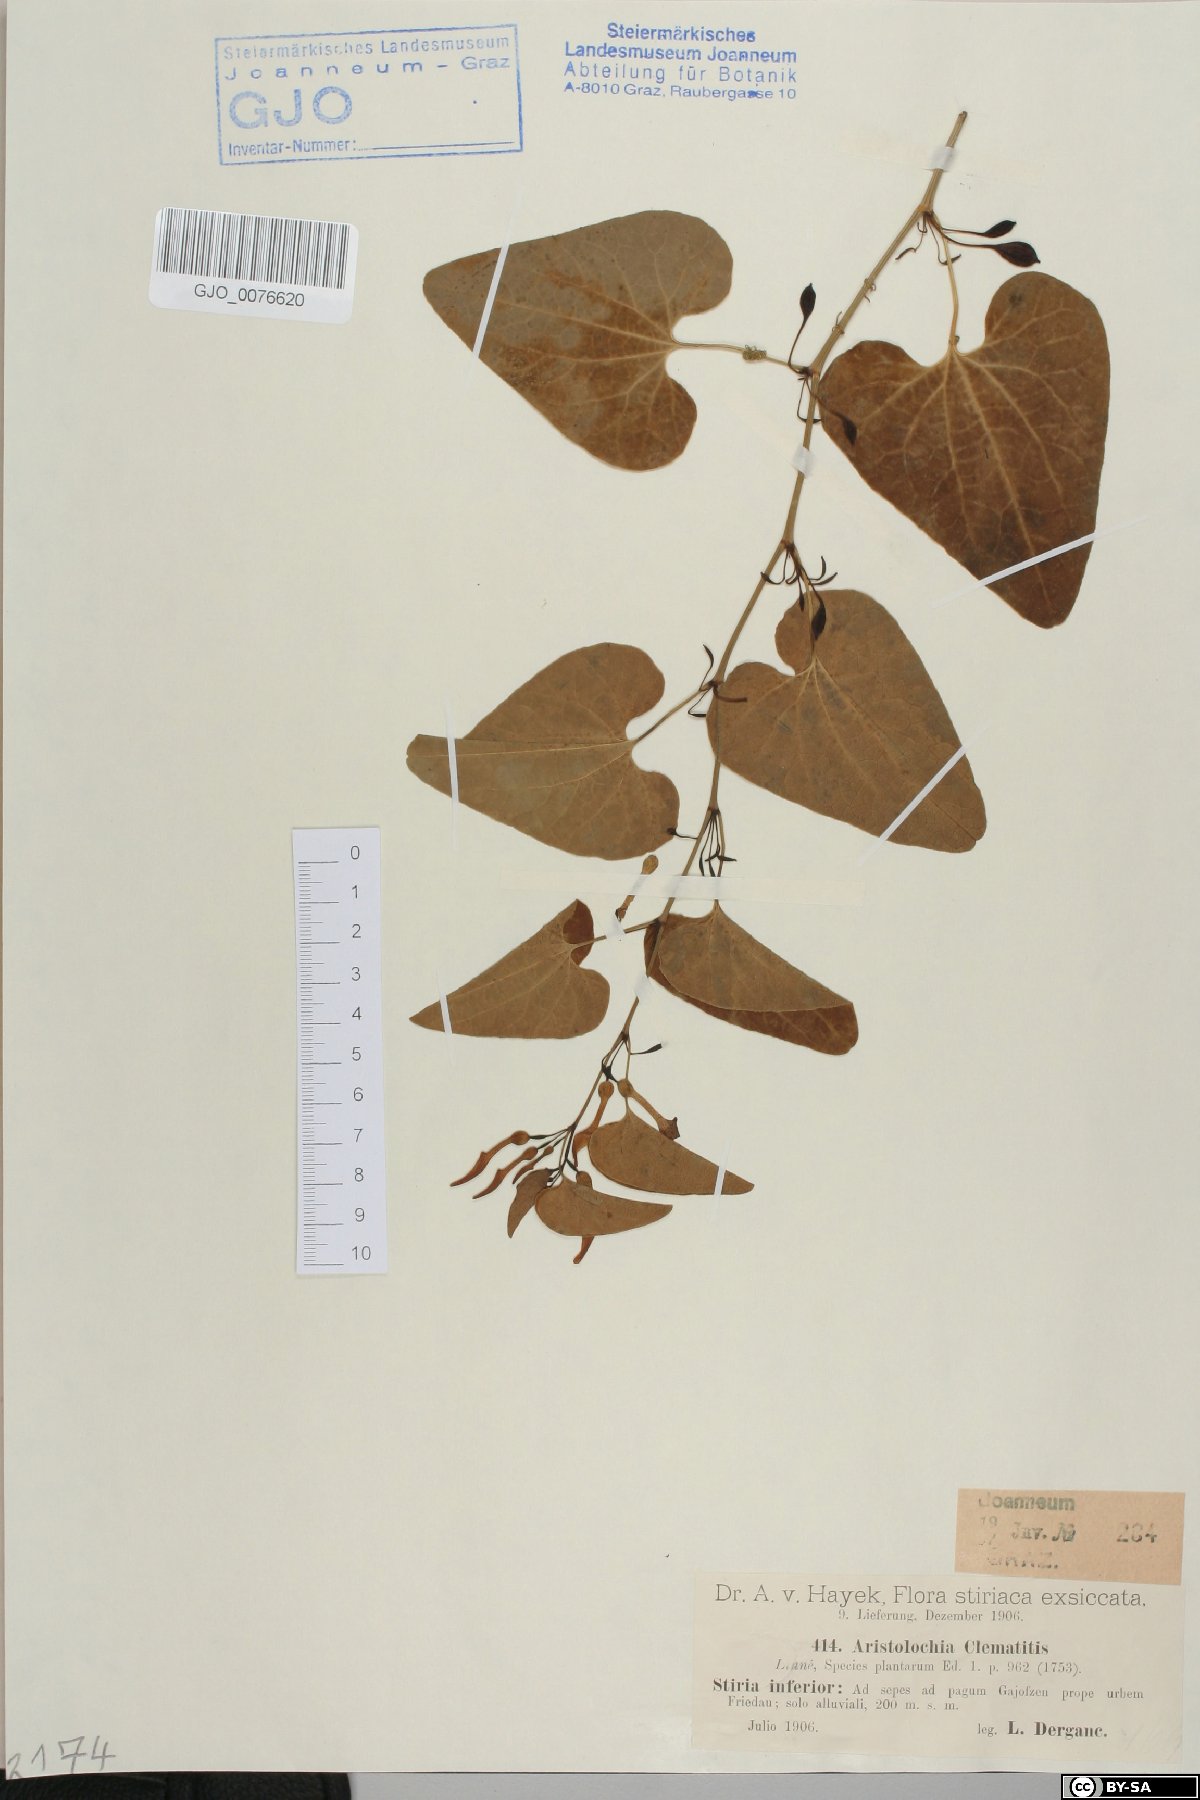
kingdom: Plantae
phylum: Tracheophyta
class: Magnoliopsida
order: Piperales
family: Aristolochiaceae
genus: Aristolochia
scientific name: Aristolochia clematitis
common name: Birthwort
